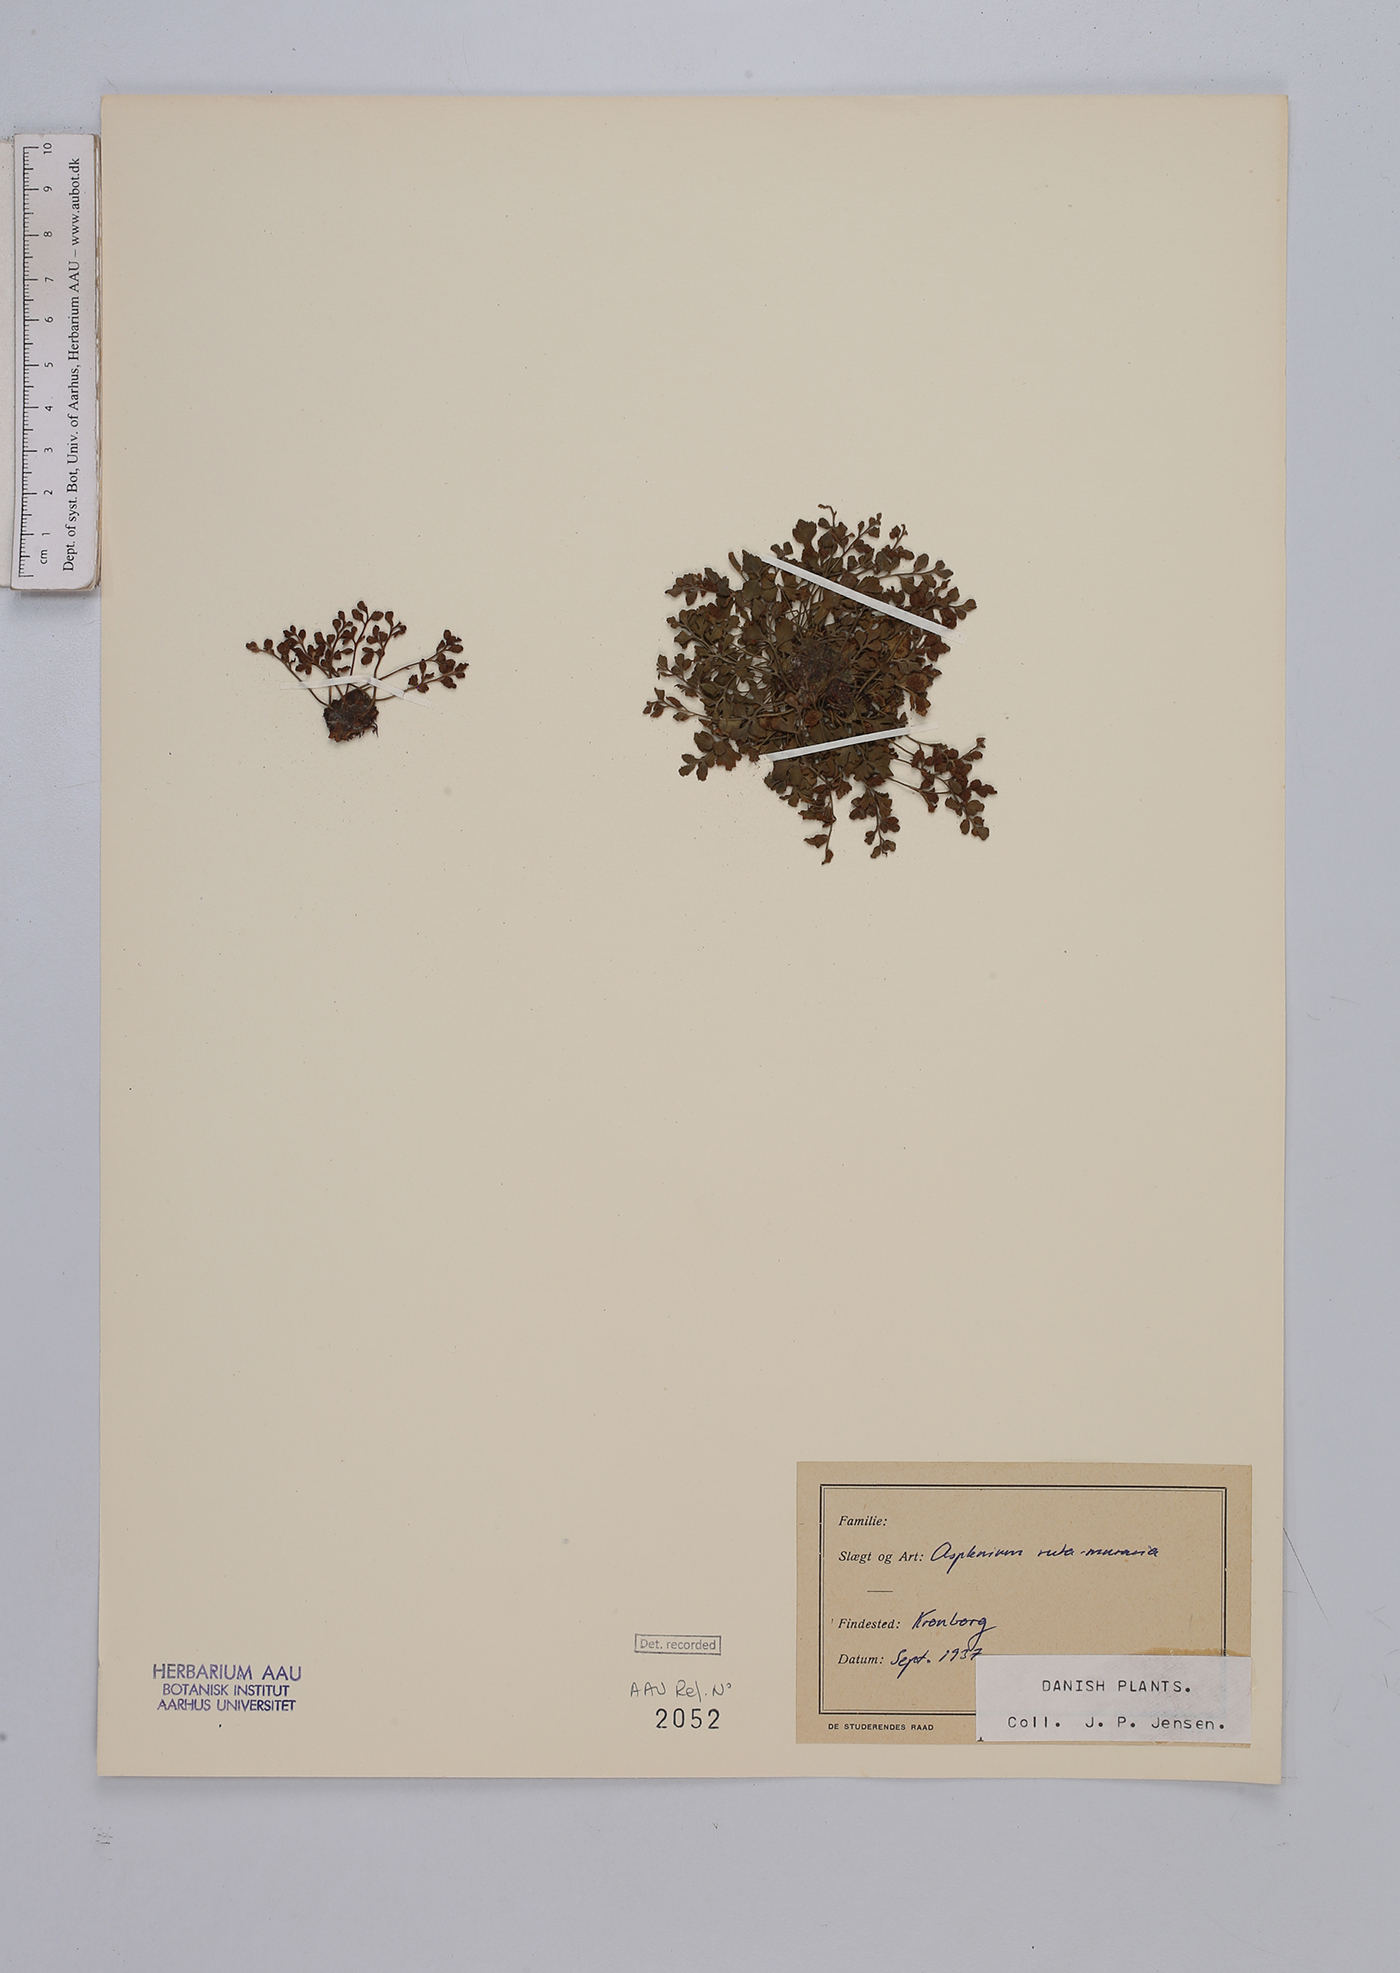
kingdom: Plantae
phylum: Tracheophyta
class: Polypodiopsida
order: Polypodiales
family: Aspleniaceae
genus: Asplenium
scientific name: Asplenium ruta-muraria
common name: Wall-rue
